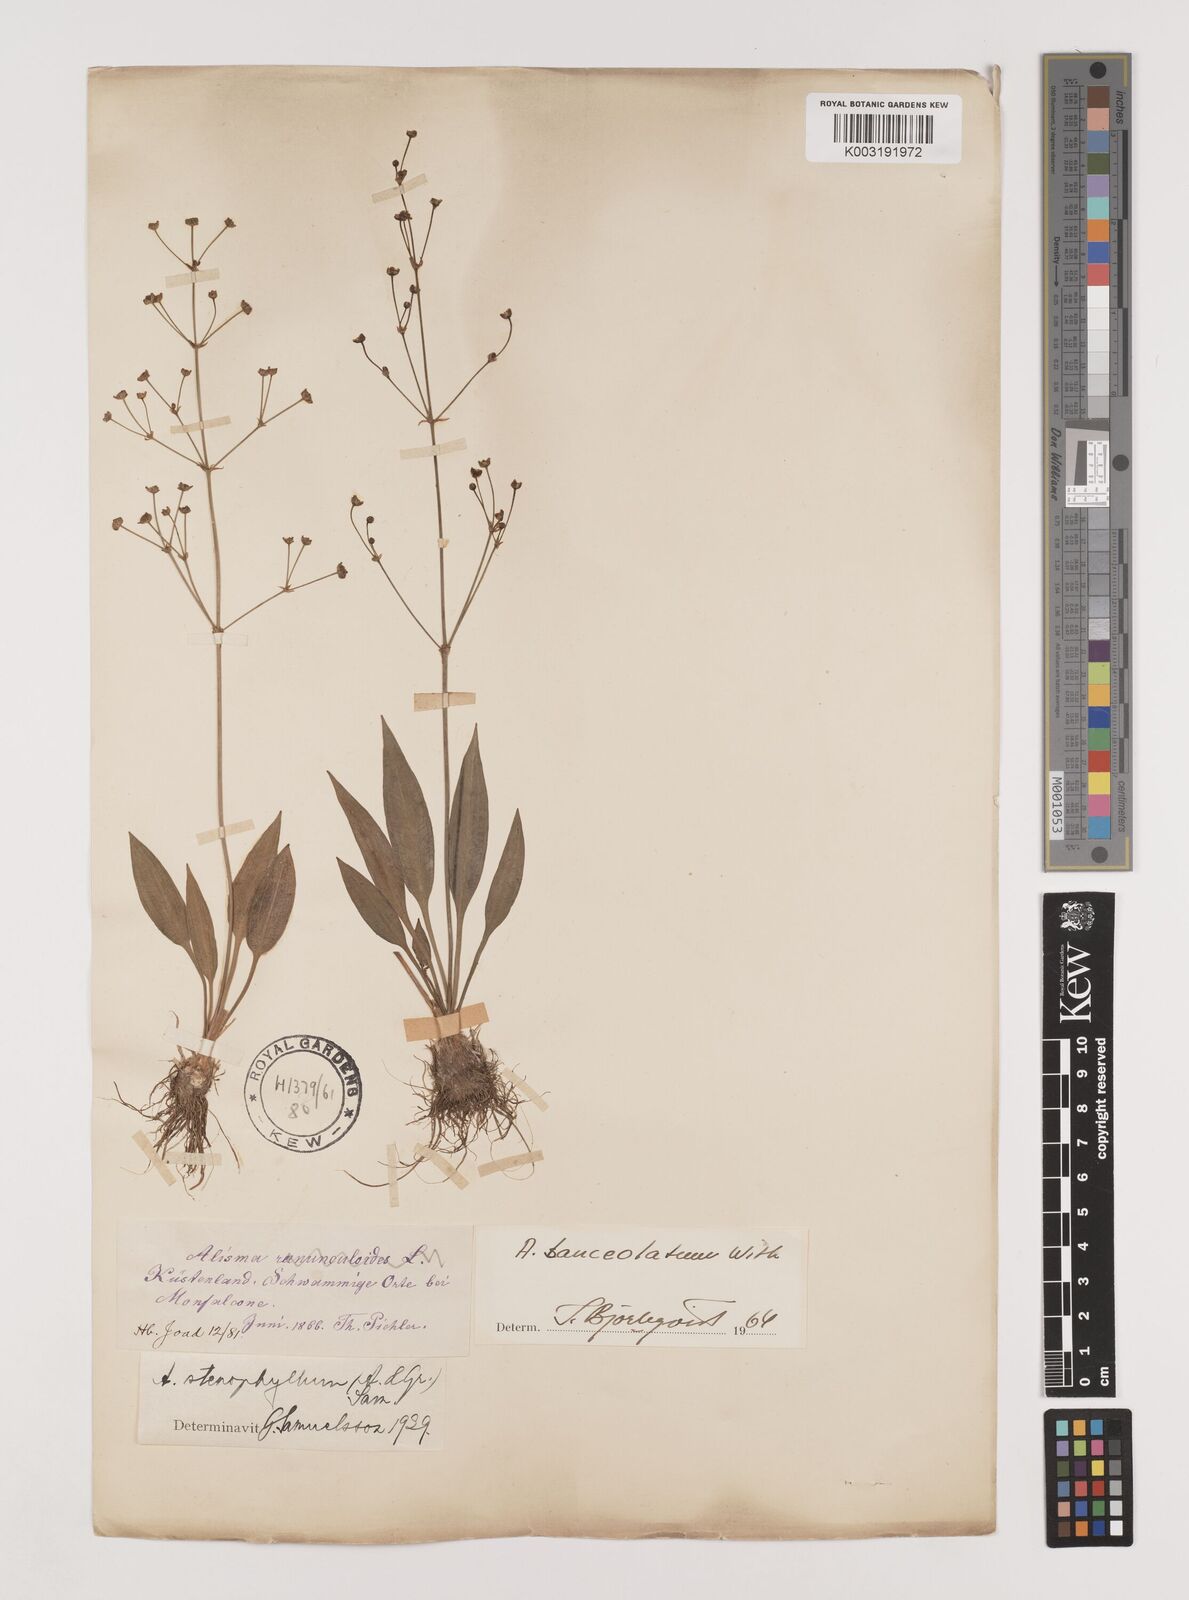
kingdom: Plantae
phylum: Tracheophyta
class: Liliopsida
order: Alismatales
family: Alismataceae
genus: Alisma
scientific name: Alisma lanceolatum
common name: Narrow-leaved water-plantain
